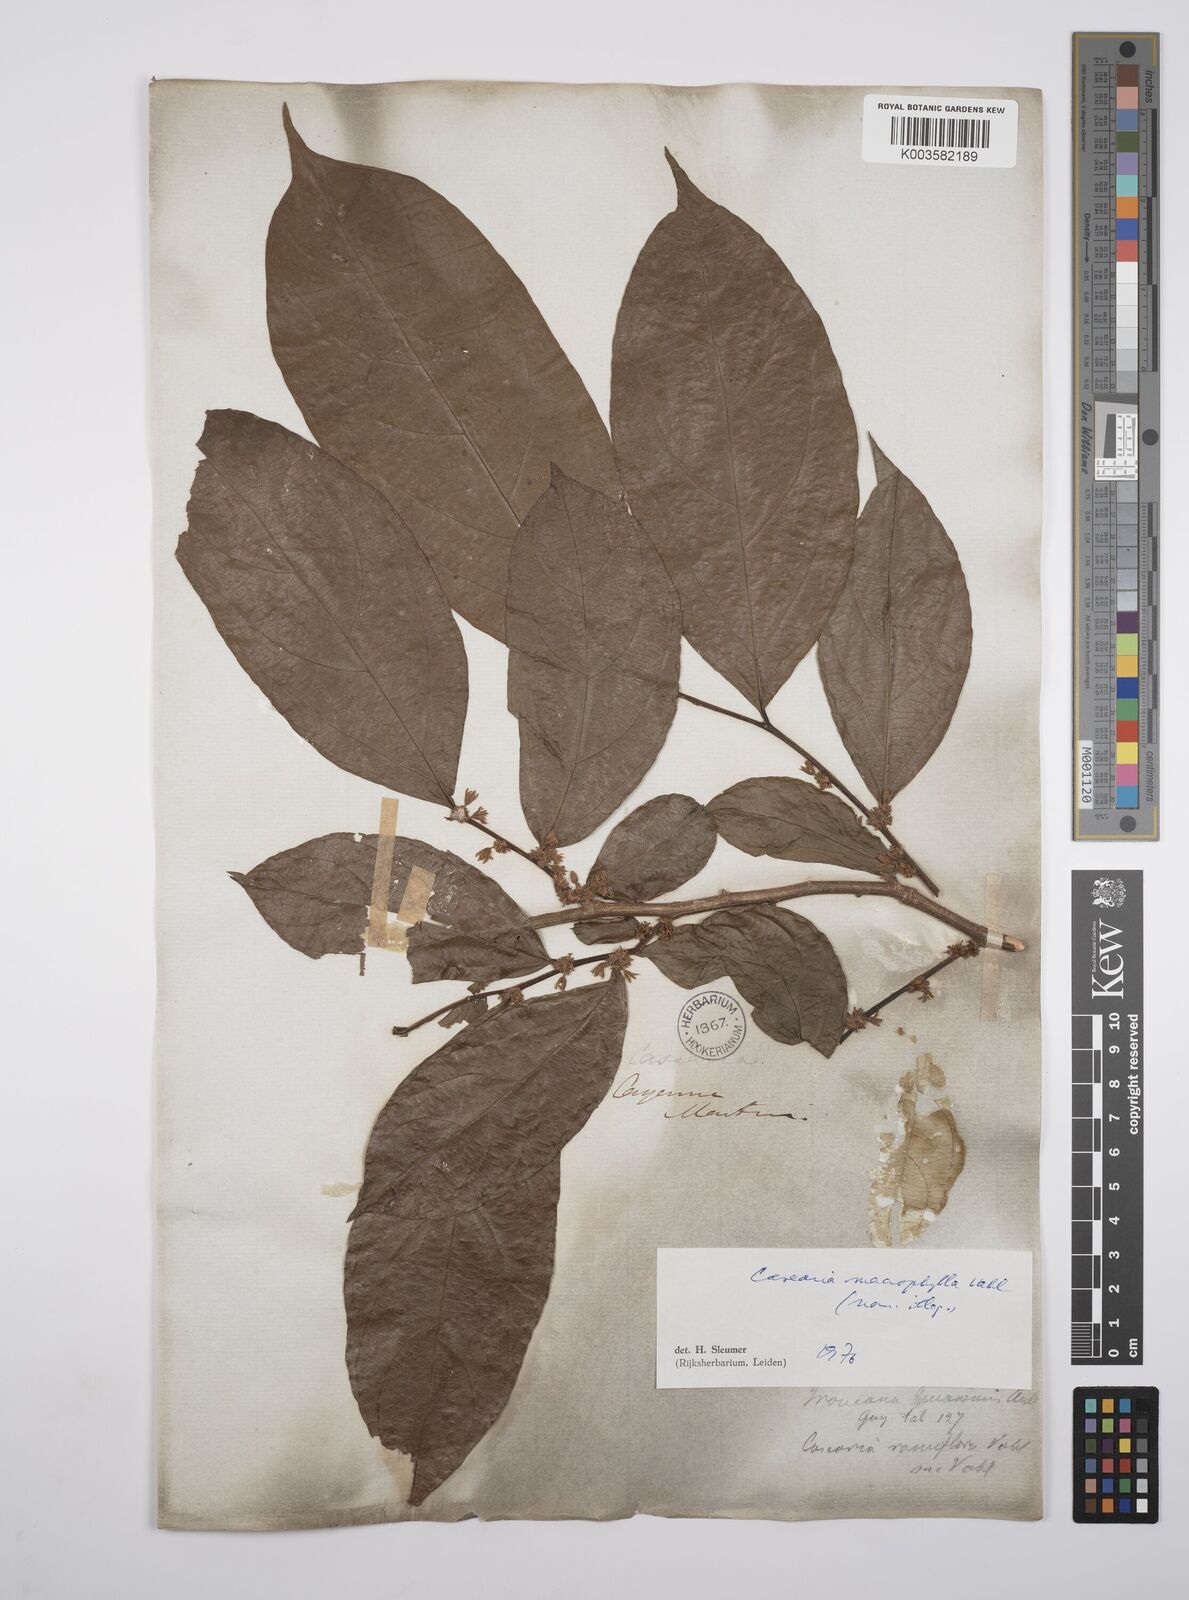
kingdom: Plantae
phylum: Tracheophyta
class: Magnoliopsida
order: Malpighiales
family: Salicaceae
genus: Casearia
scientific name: Casearia pitumba
